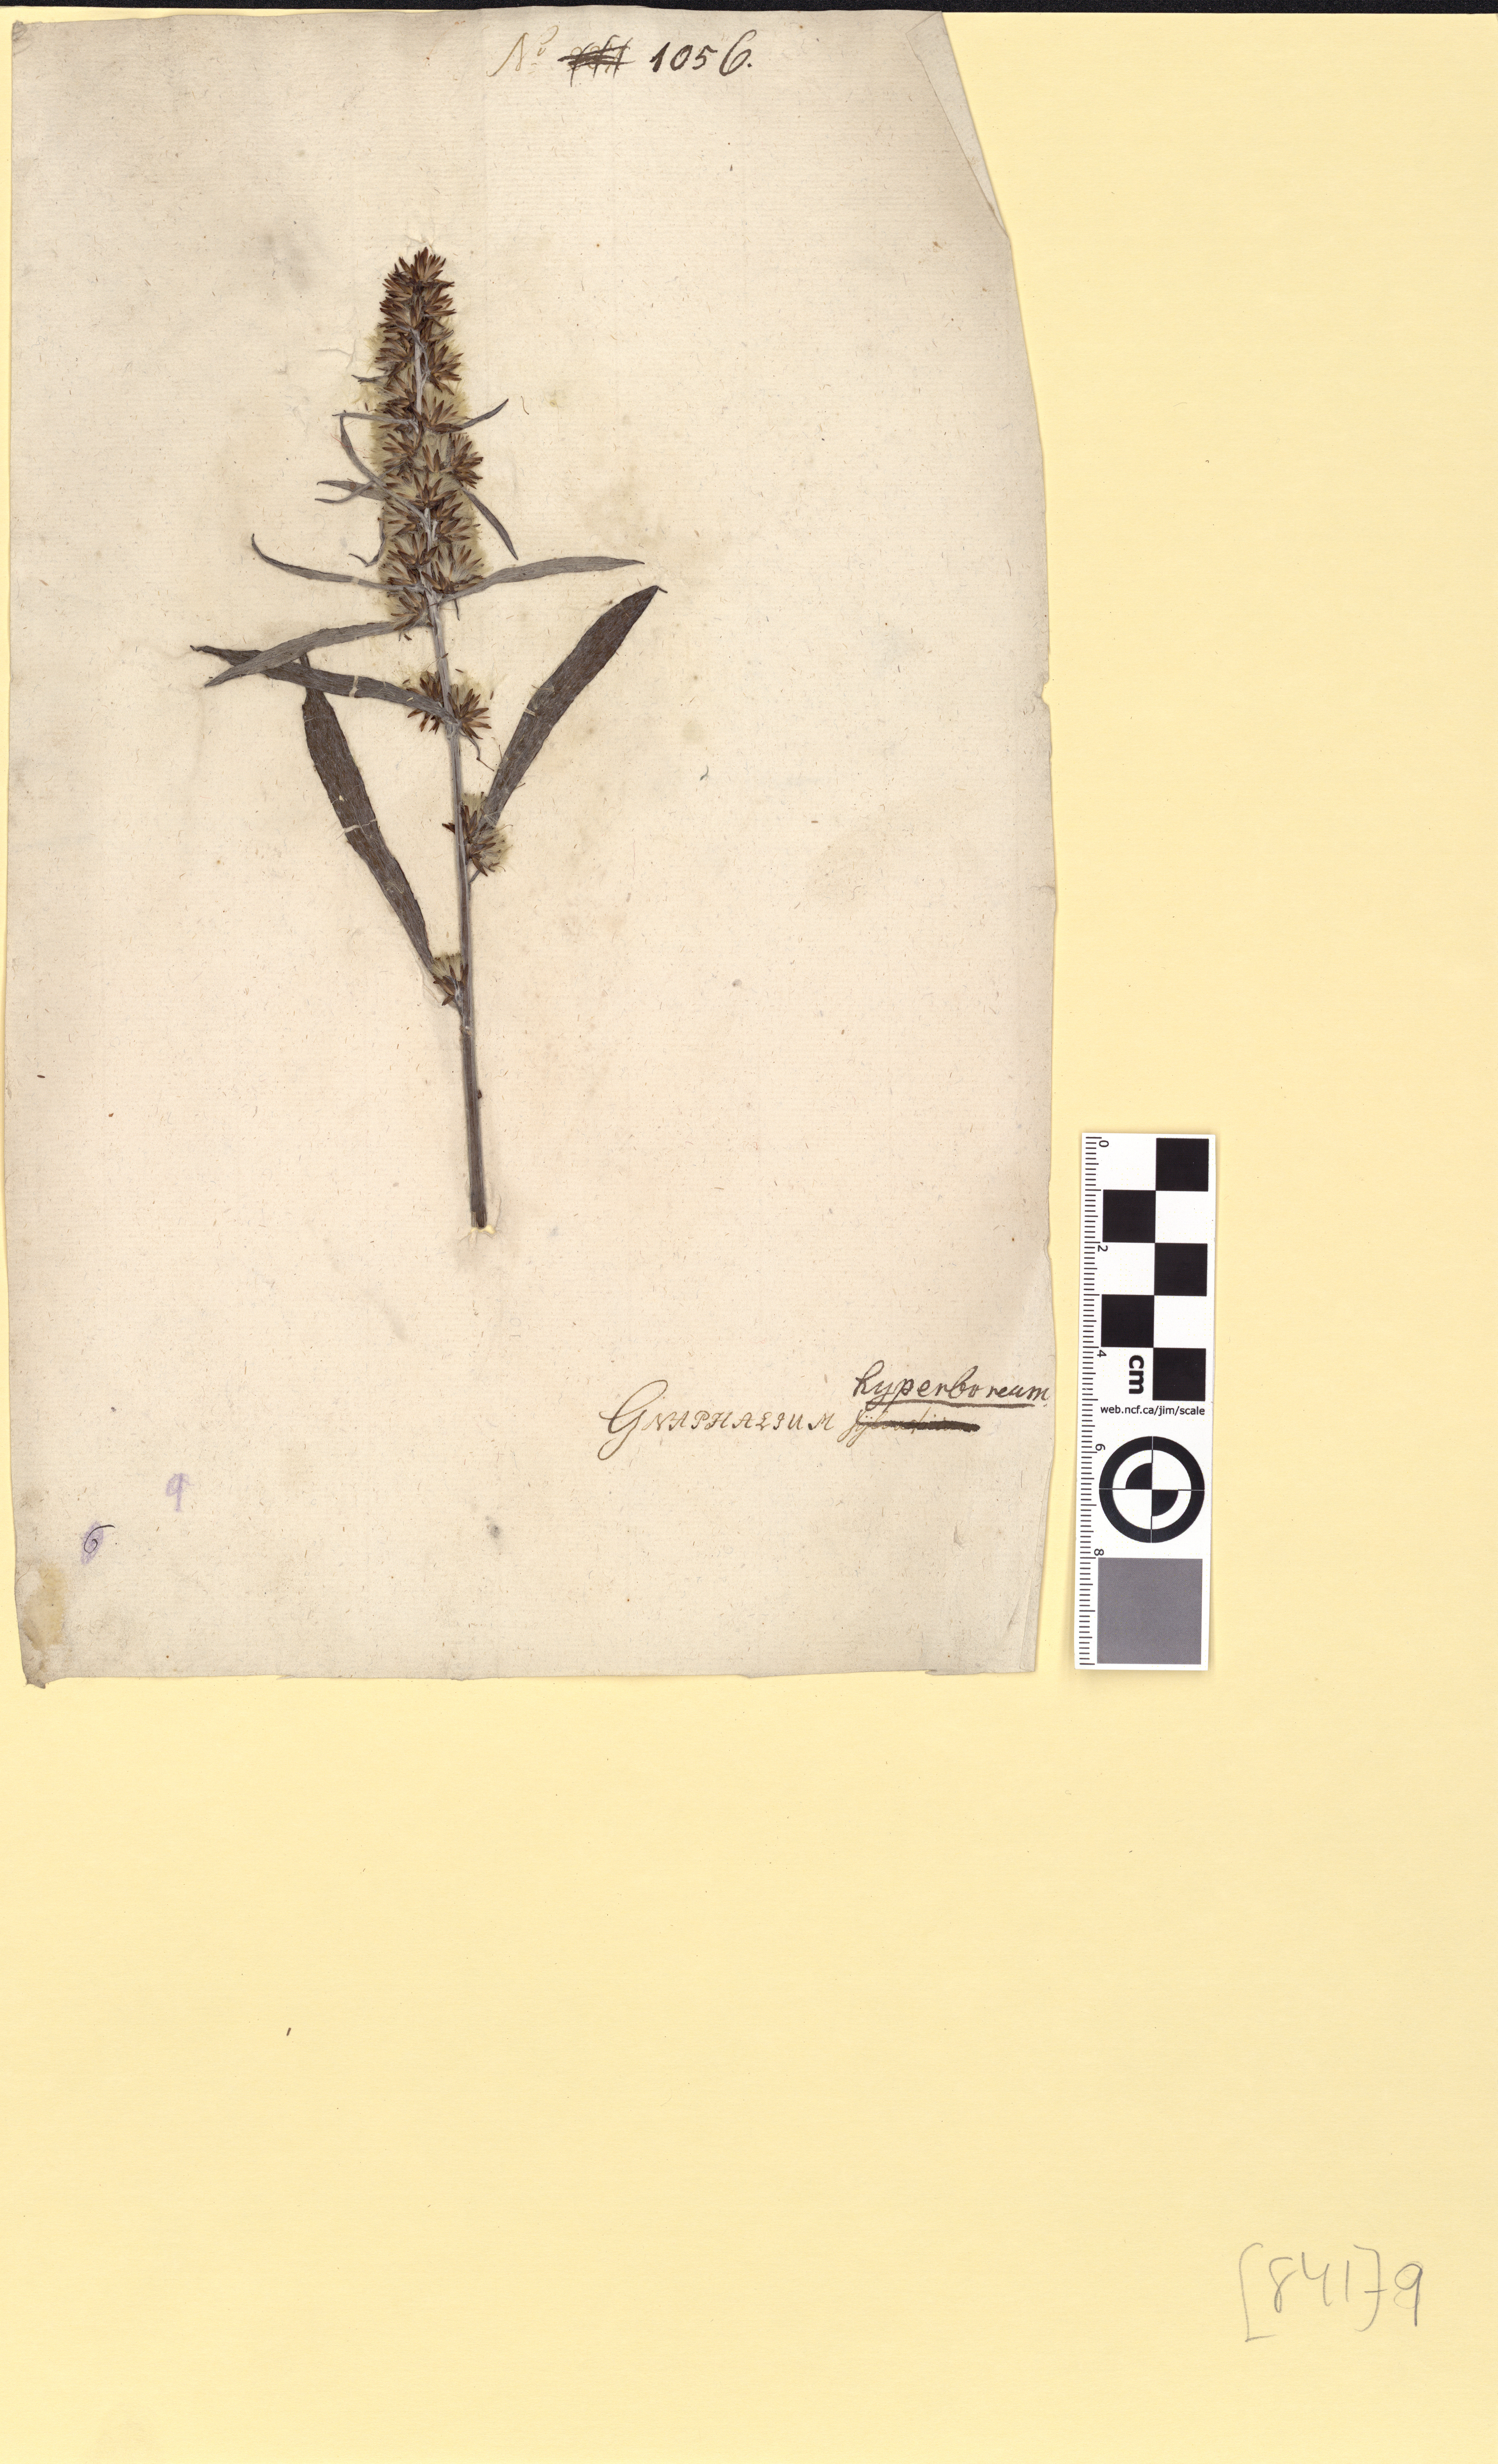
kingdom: Plantae
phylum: Tracheophyta
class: Magnoliopsida
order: Asterales
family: Asteraceae
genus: Omalotheca
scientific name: Omalotheca norvegica
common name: Norwegian arctic-cudweed
